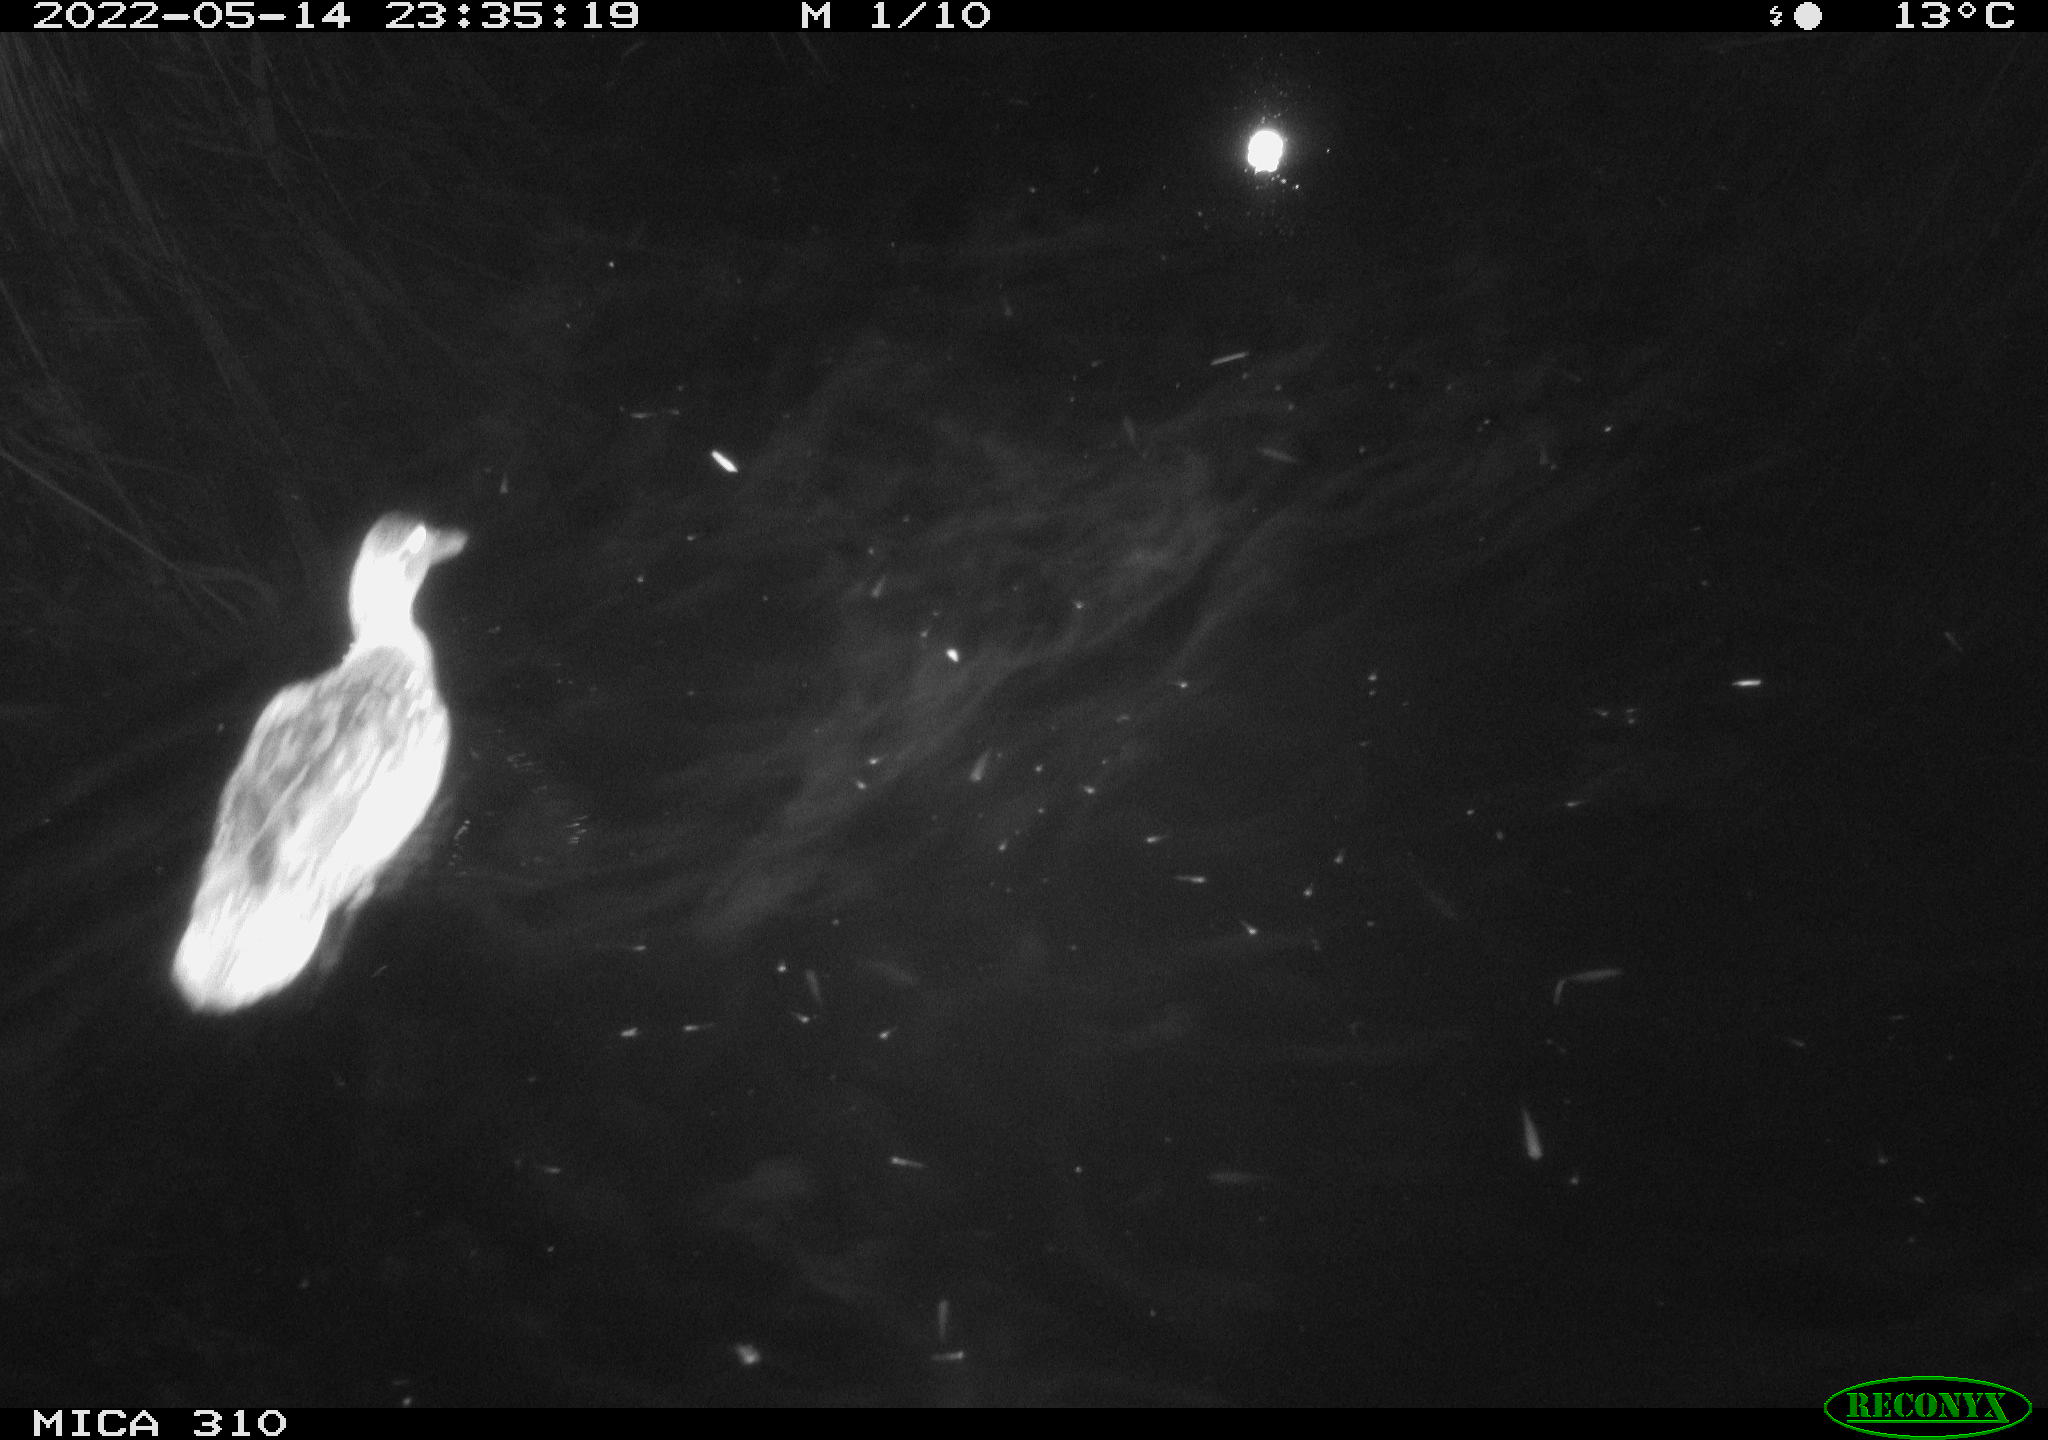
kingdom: Animalia
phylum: Chordata
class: Aves
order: Anseriformes
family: Anatidae
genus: Anas
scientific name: Anas platyrhynchos
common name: Mallard
